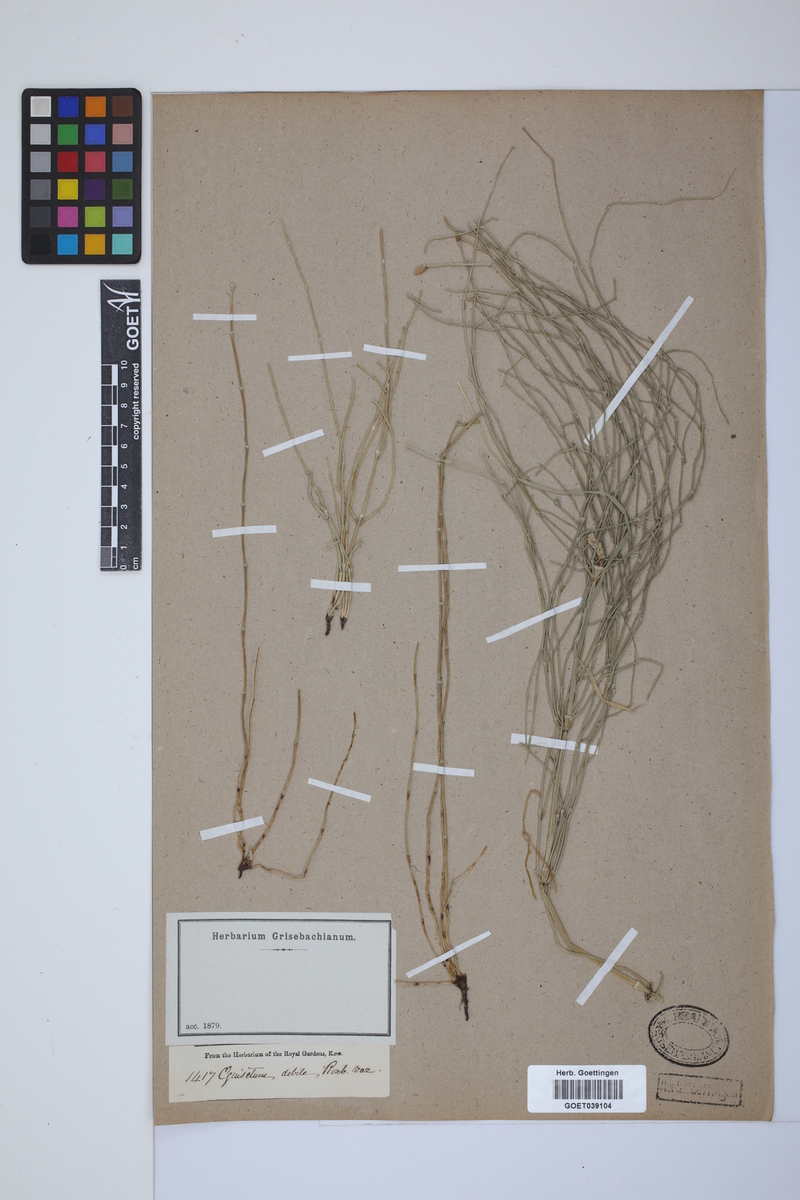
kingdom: Plantae
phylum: Tracheophyta
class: Polypodiopsida
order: Equisetales
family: Equisetaceae
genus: Equisetum
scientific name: Equisetum ramosissimum
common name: Branched horsetail
